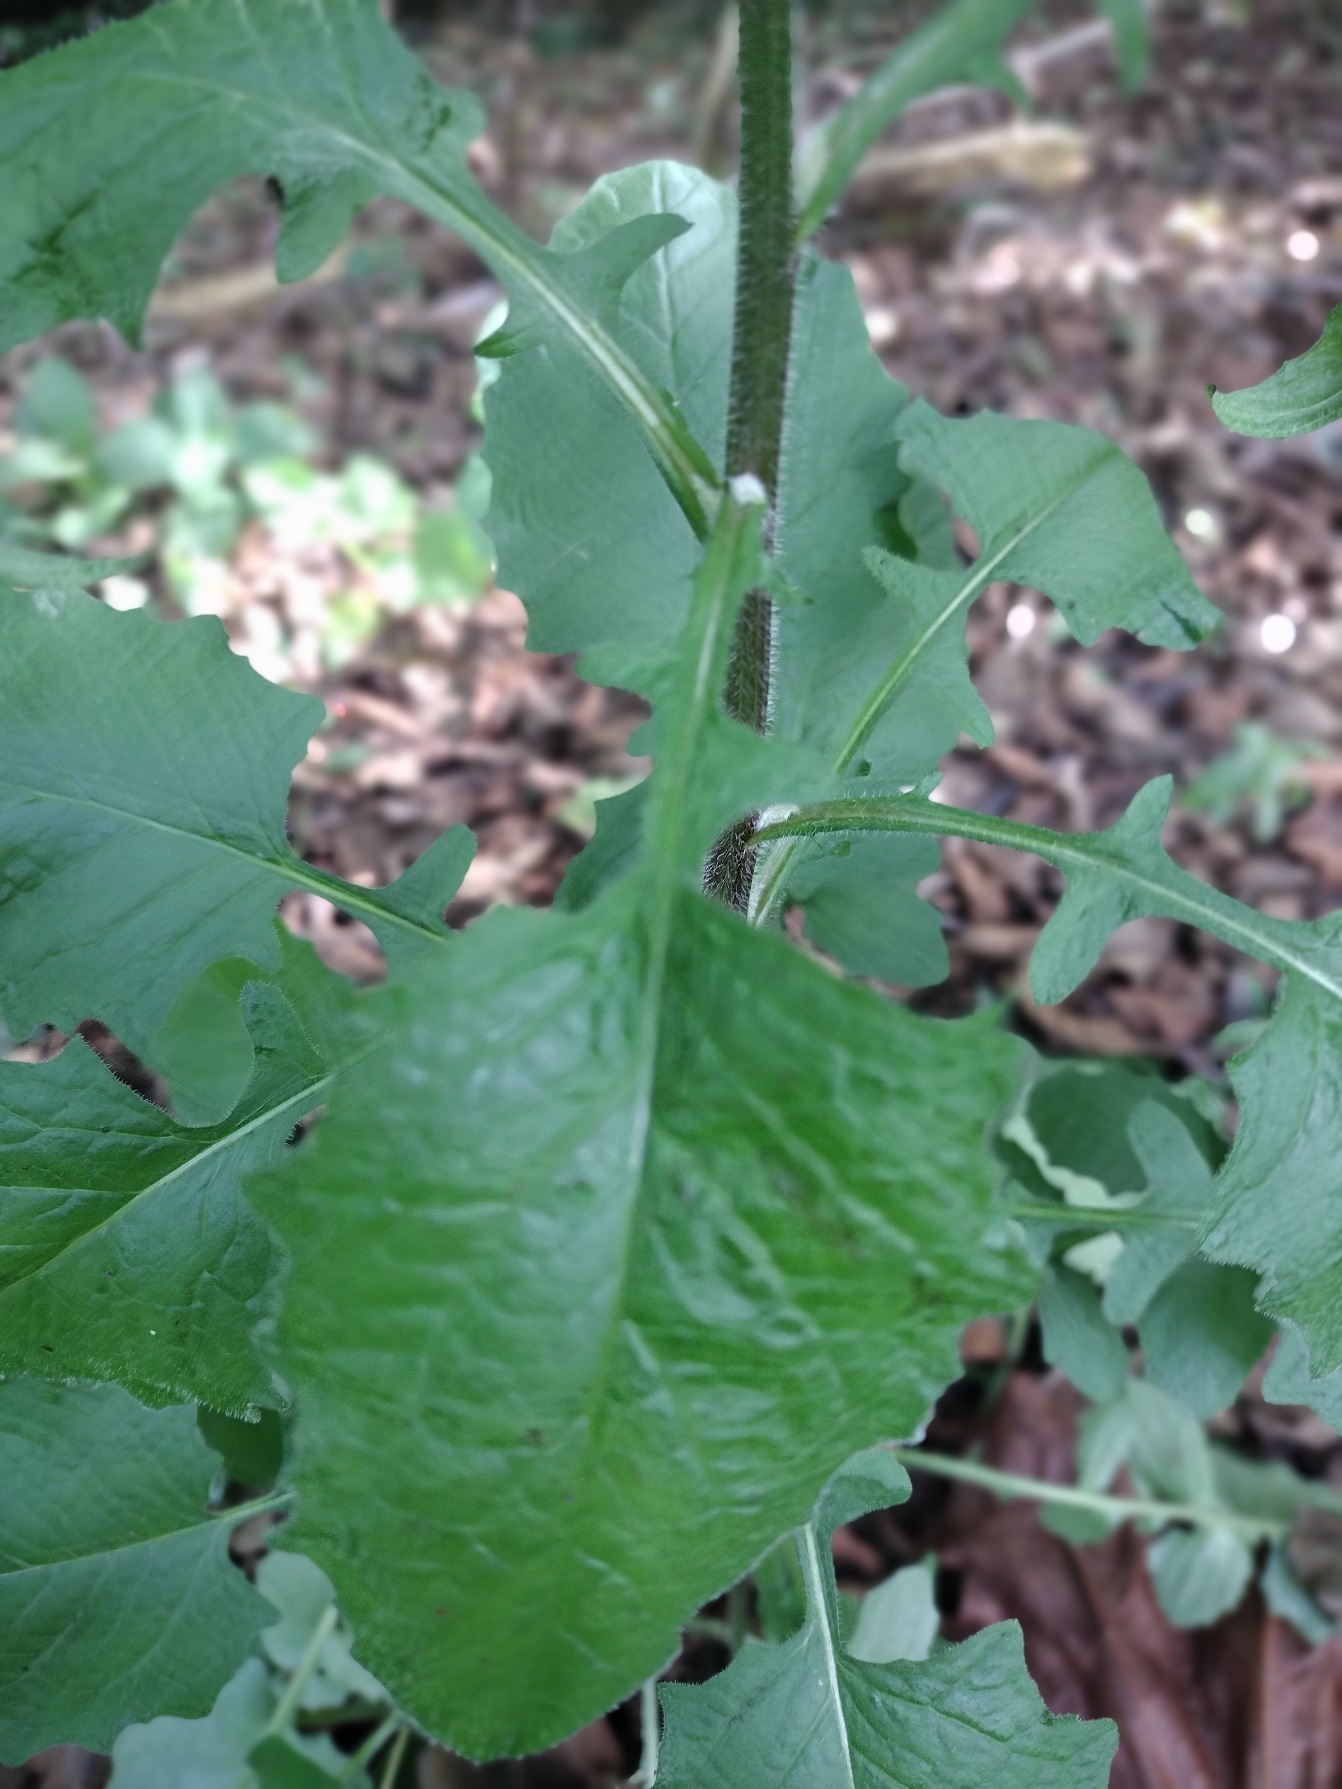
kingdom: Plantae
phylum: Tracheophyta
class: Magnoliopsida
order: Asterales
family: Asteraceae
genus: Lapsana
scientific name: Lapsana communis
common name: Haremad
